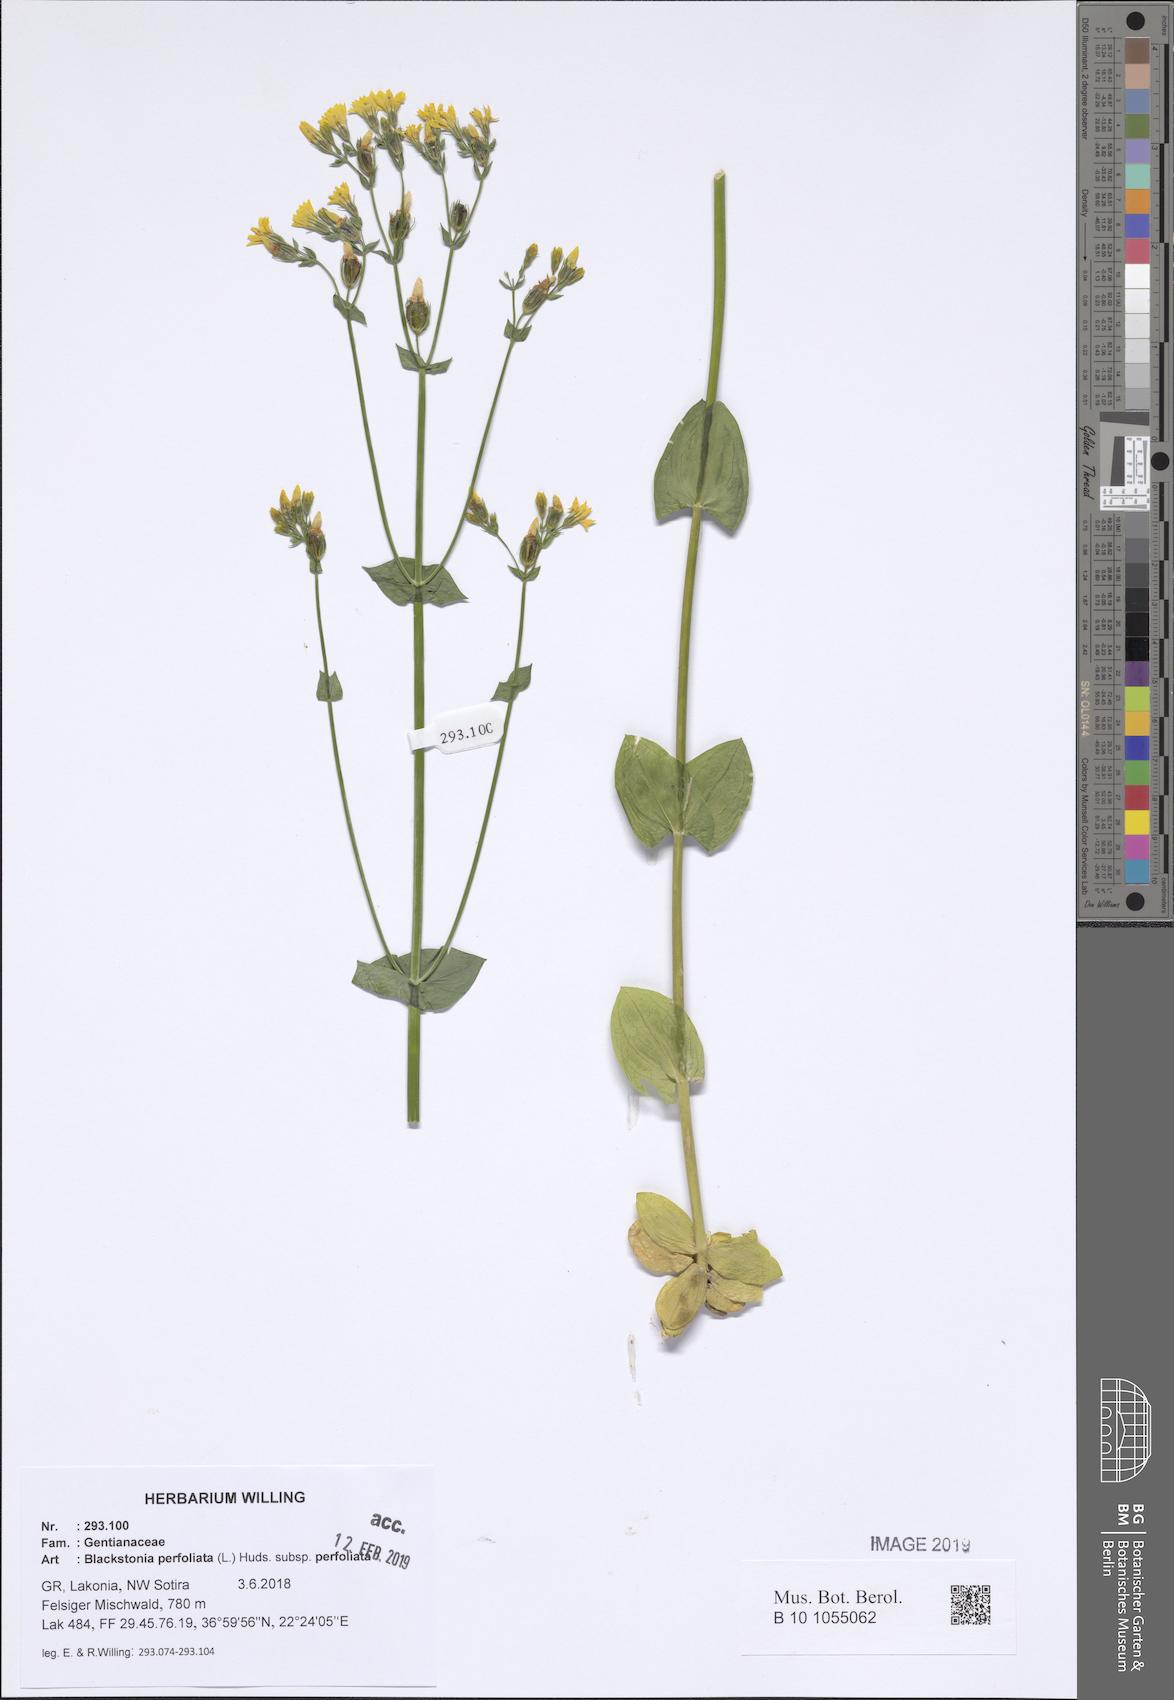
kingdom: Plantae
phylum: Tracheophyta
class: Magnoliopsida
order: Gentianales
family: Gentianaceae
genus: Blackstonia
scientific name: Blackstonia perfoliata
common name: Yellow-wort
